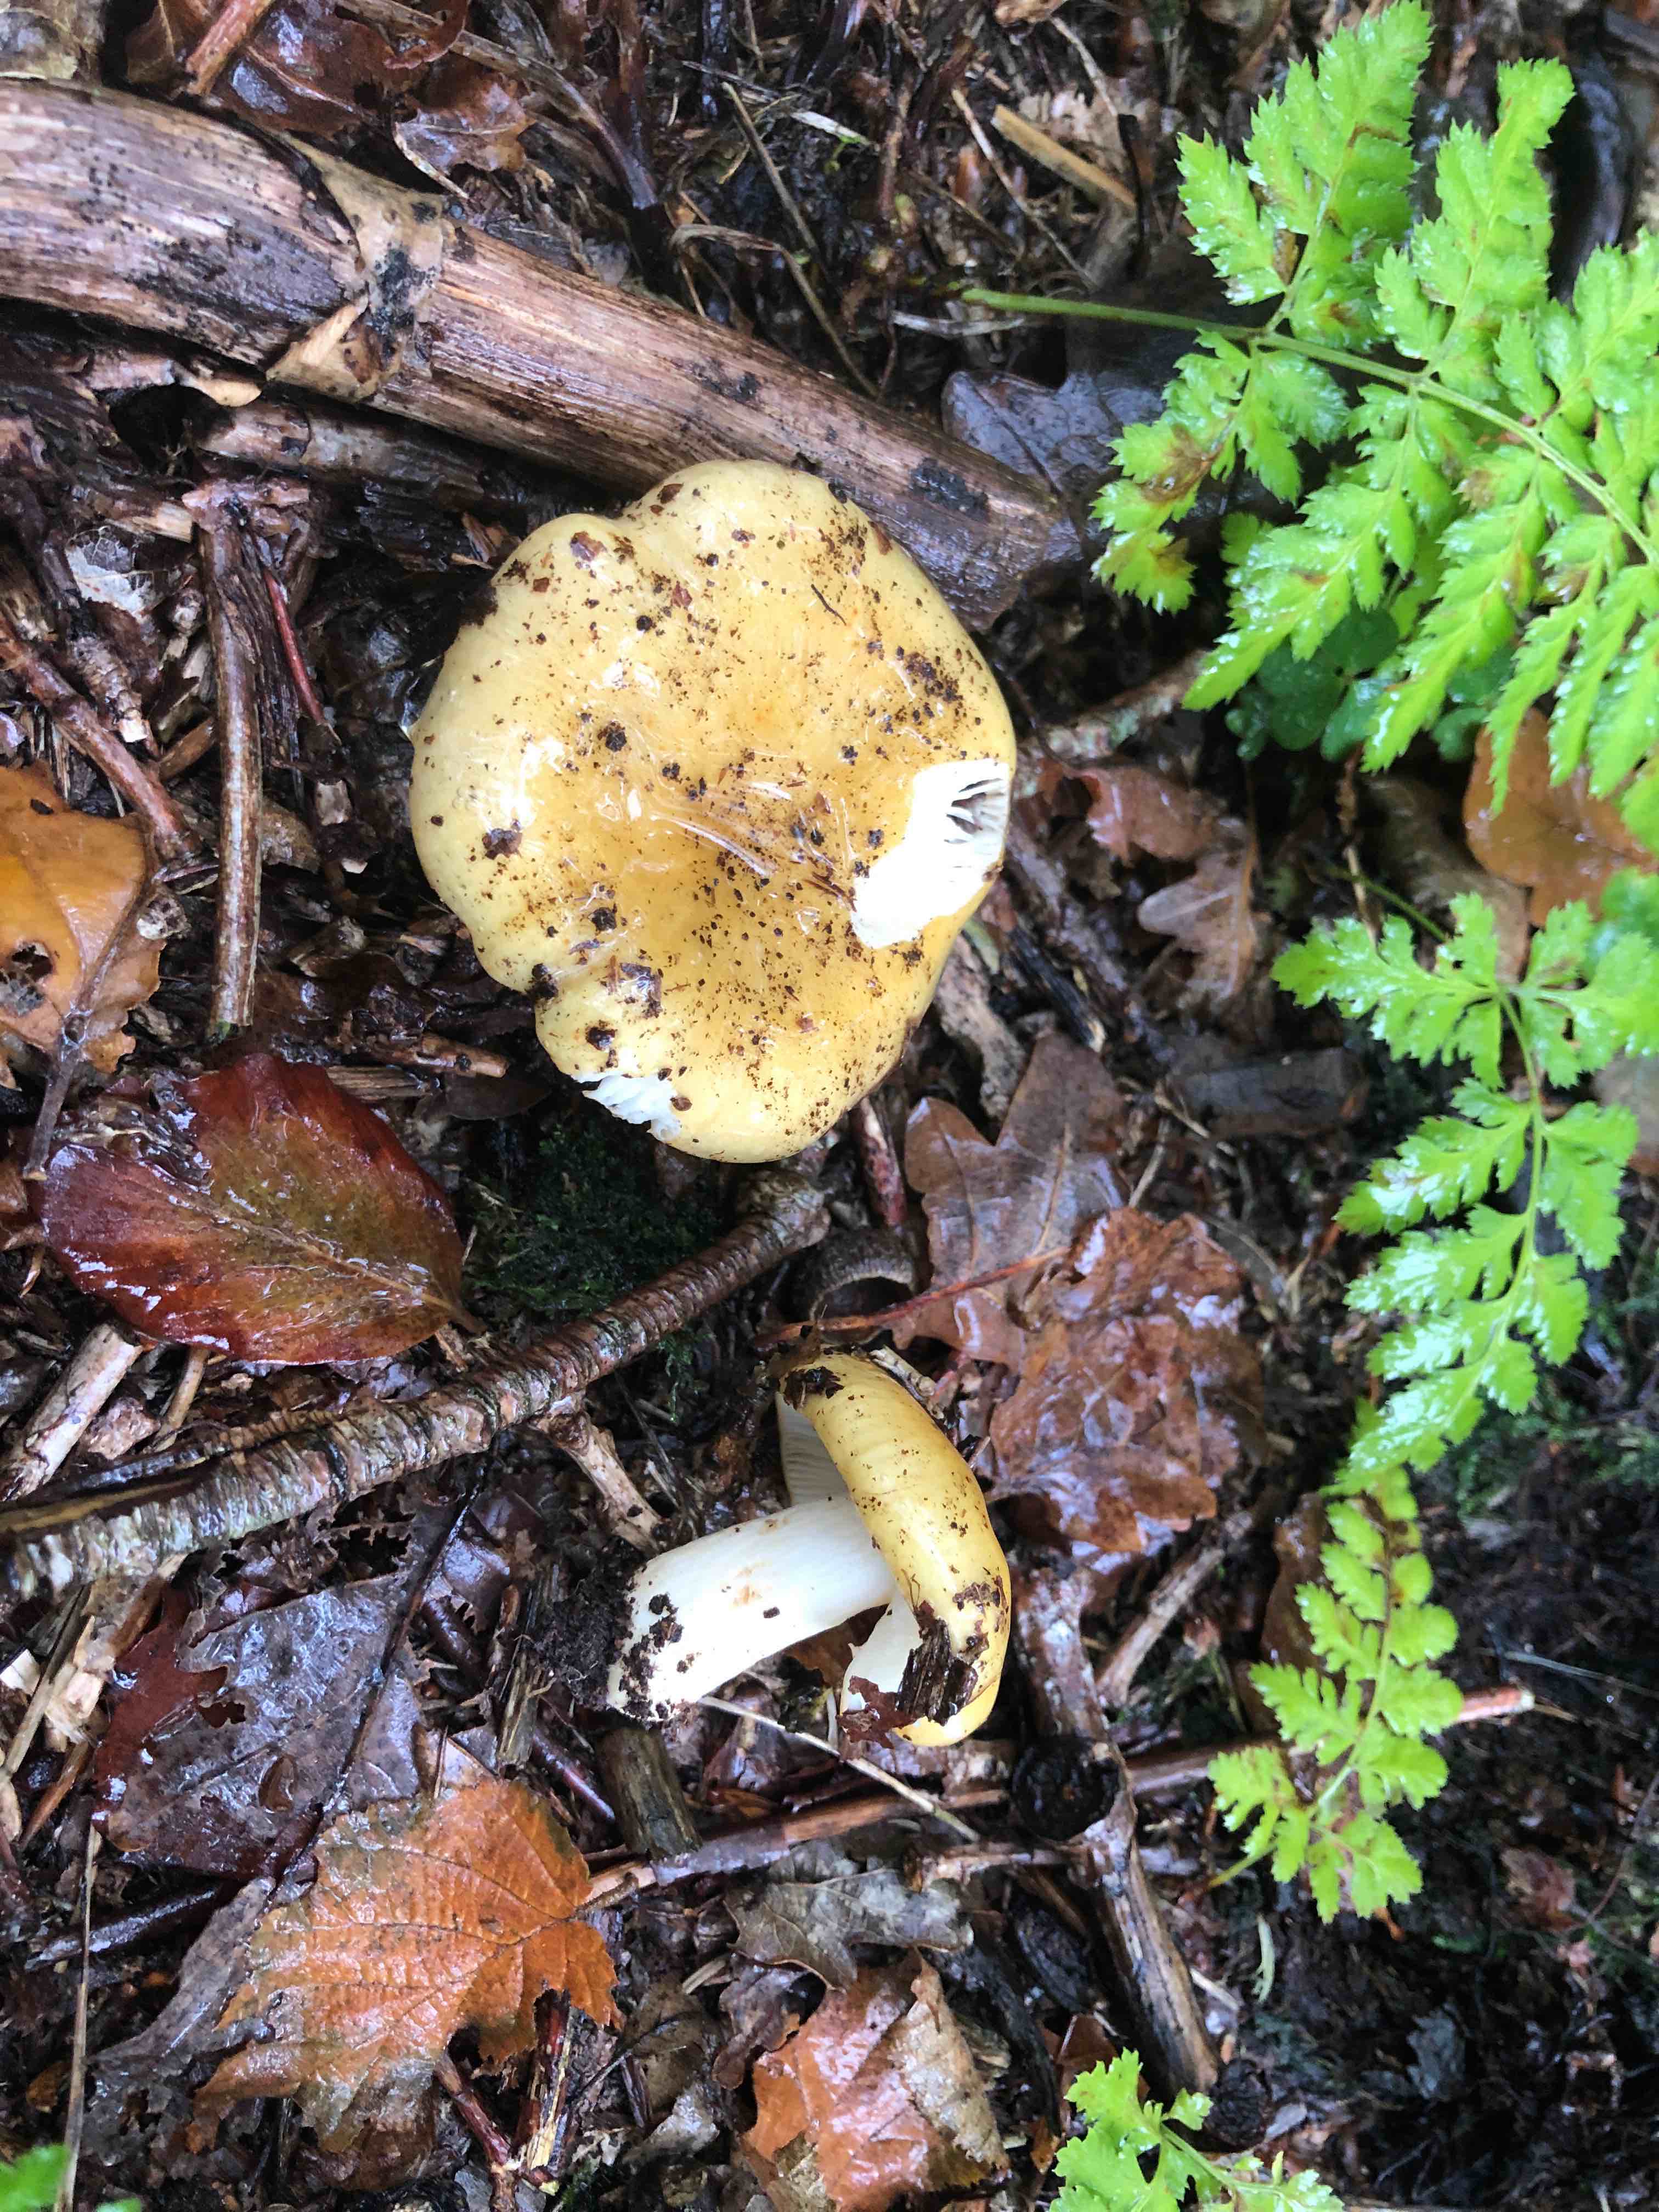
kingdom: Fungi
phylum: Basidiomycota
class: Agaricomycetes
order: Russulales
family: Russulaceae
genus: Russula
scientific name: Russula ochroleuca
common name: okkergul skørhat
